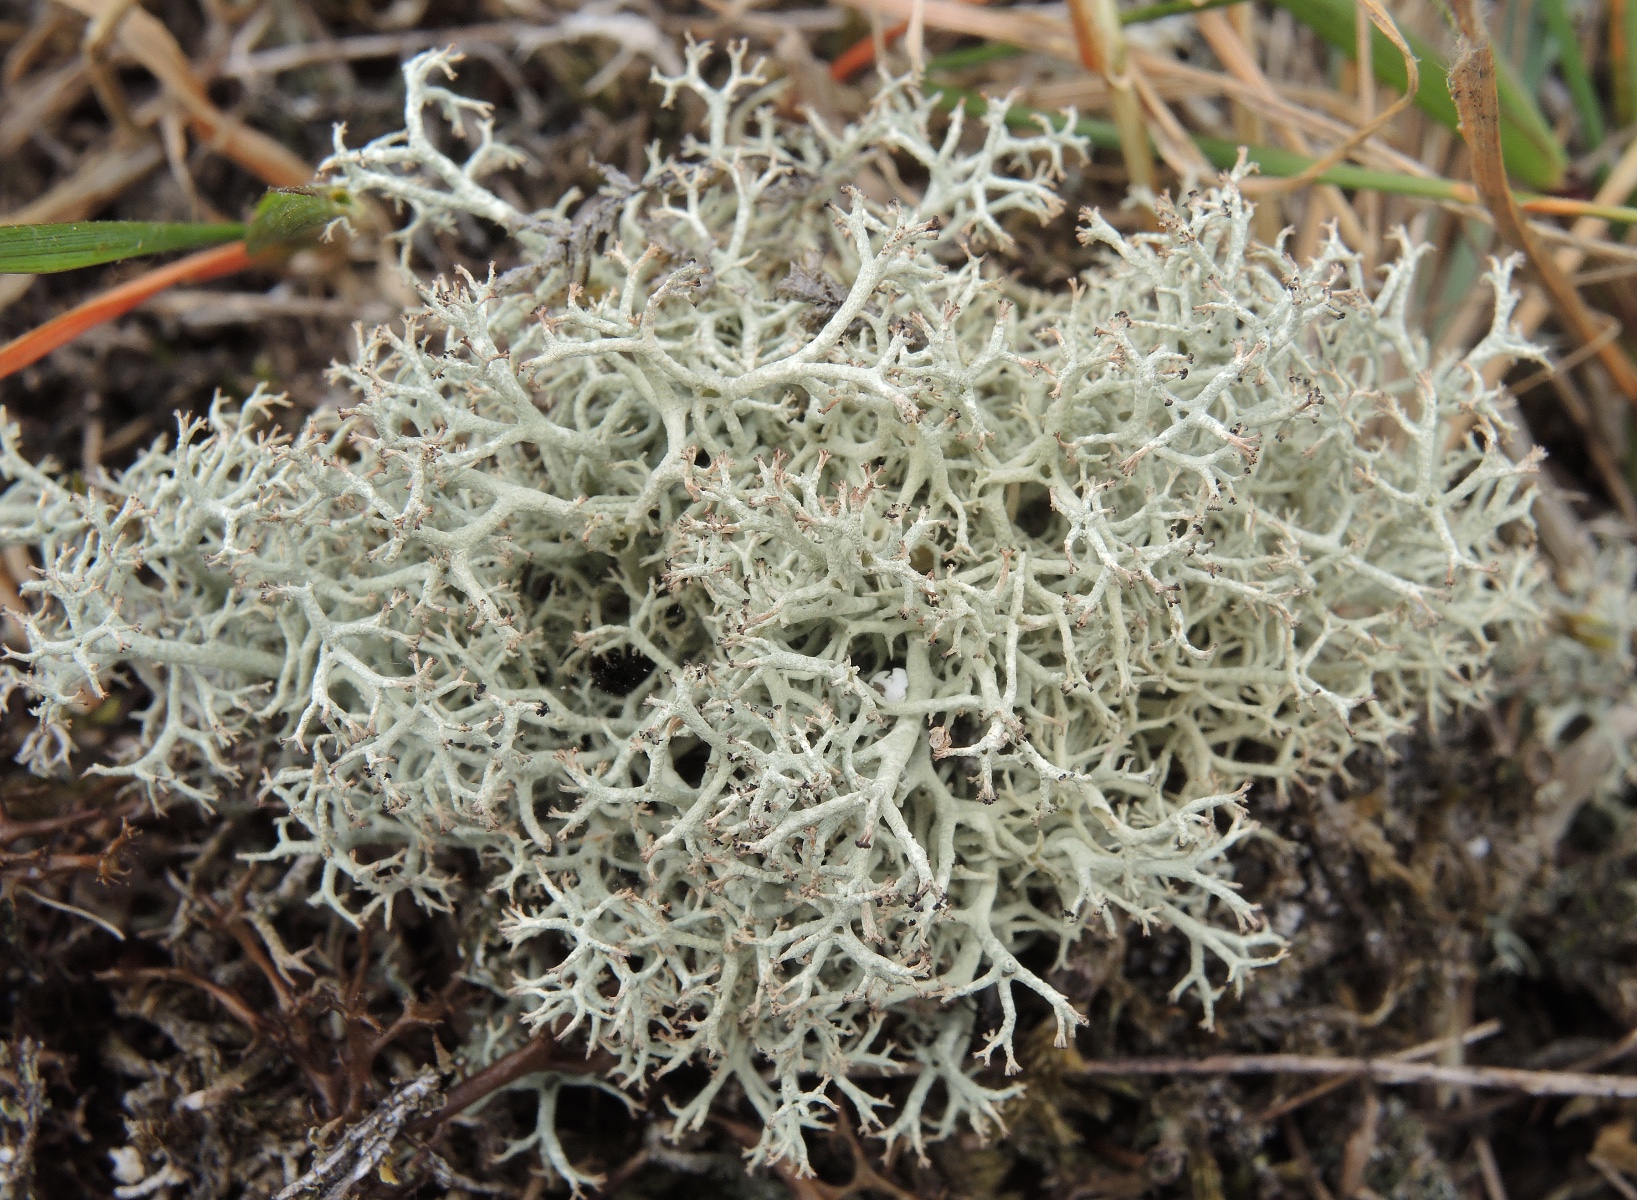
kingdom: Fungi
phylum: Ascomycota
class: Lecanoromycetes
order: Lecanorales
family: Cladoniaceae
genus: Cladonia
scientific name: Cladonia portentosa
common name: hede-rensdyrlav
